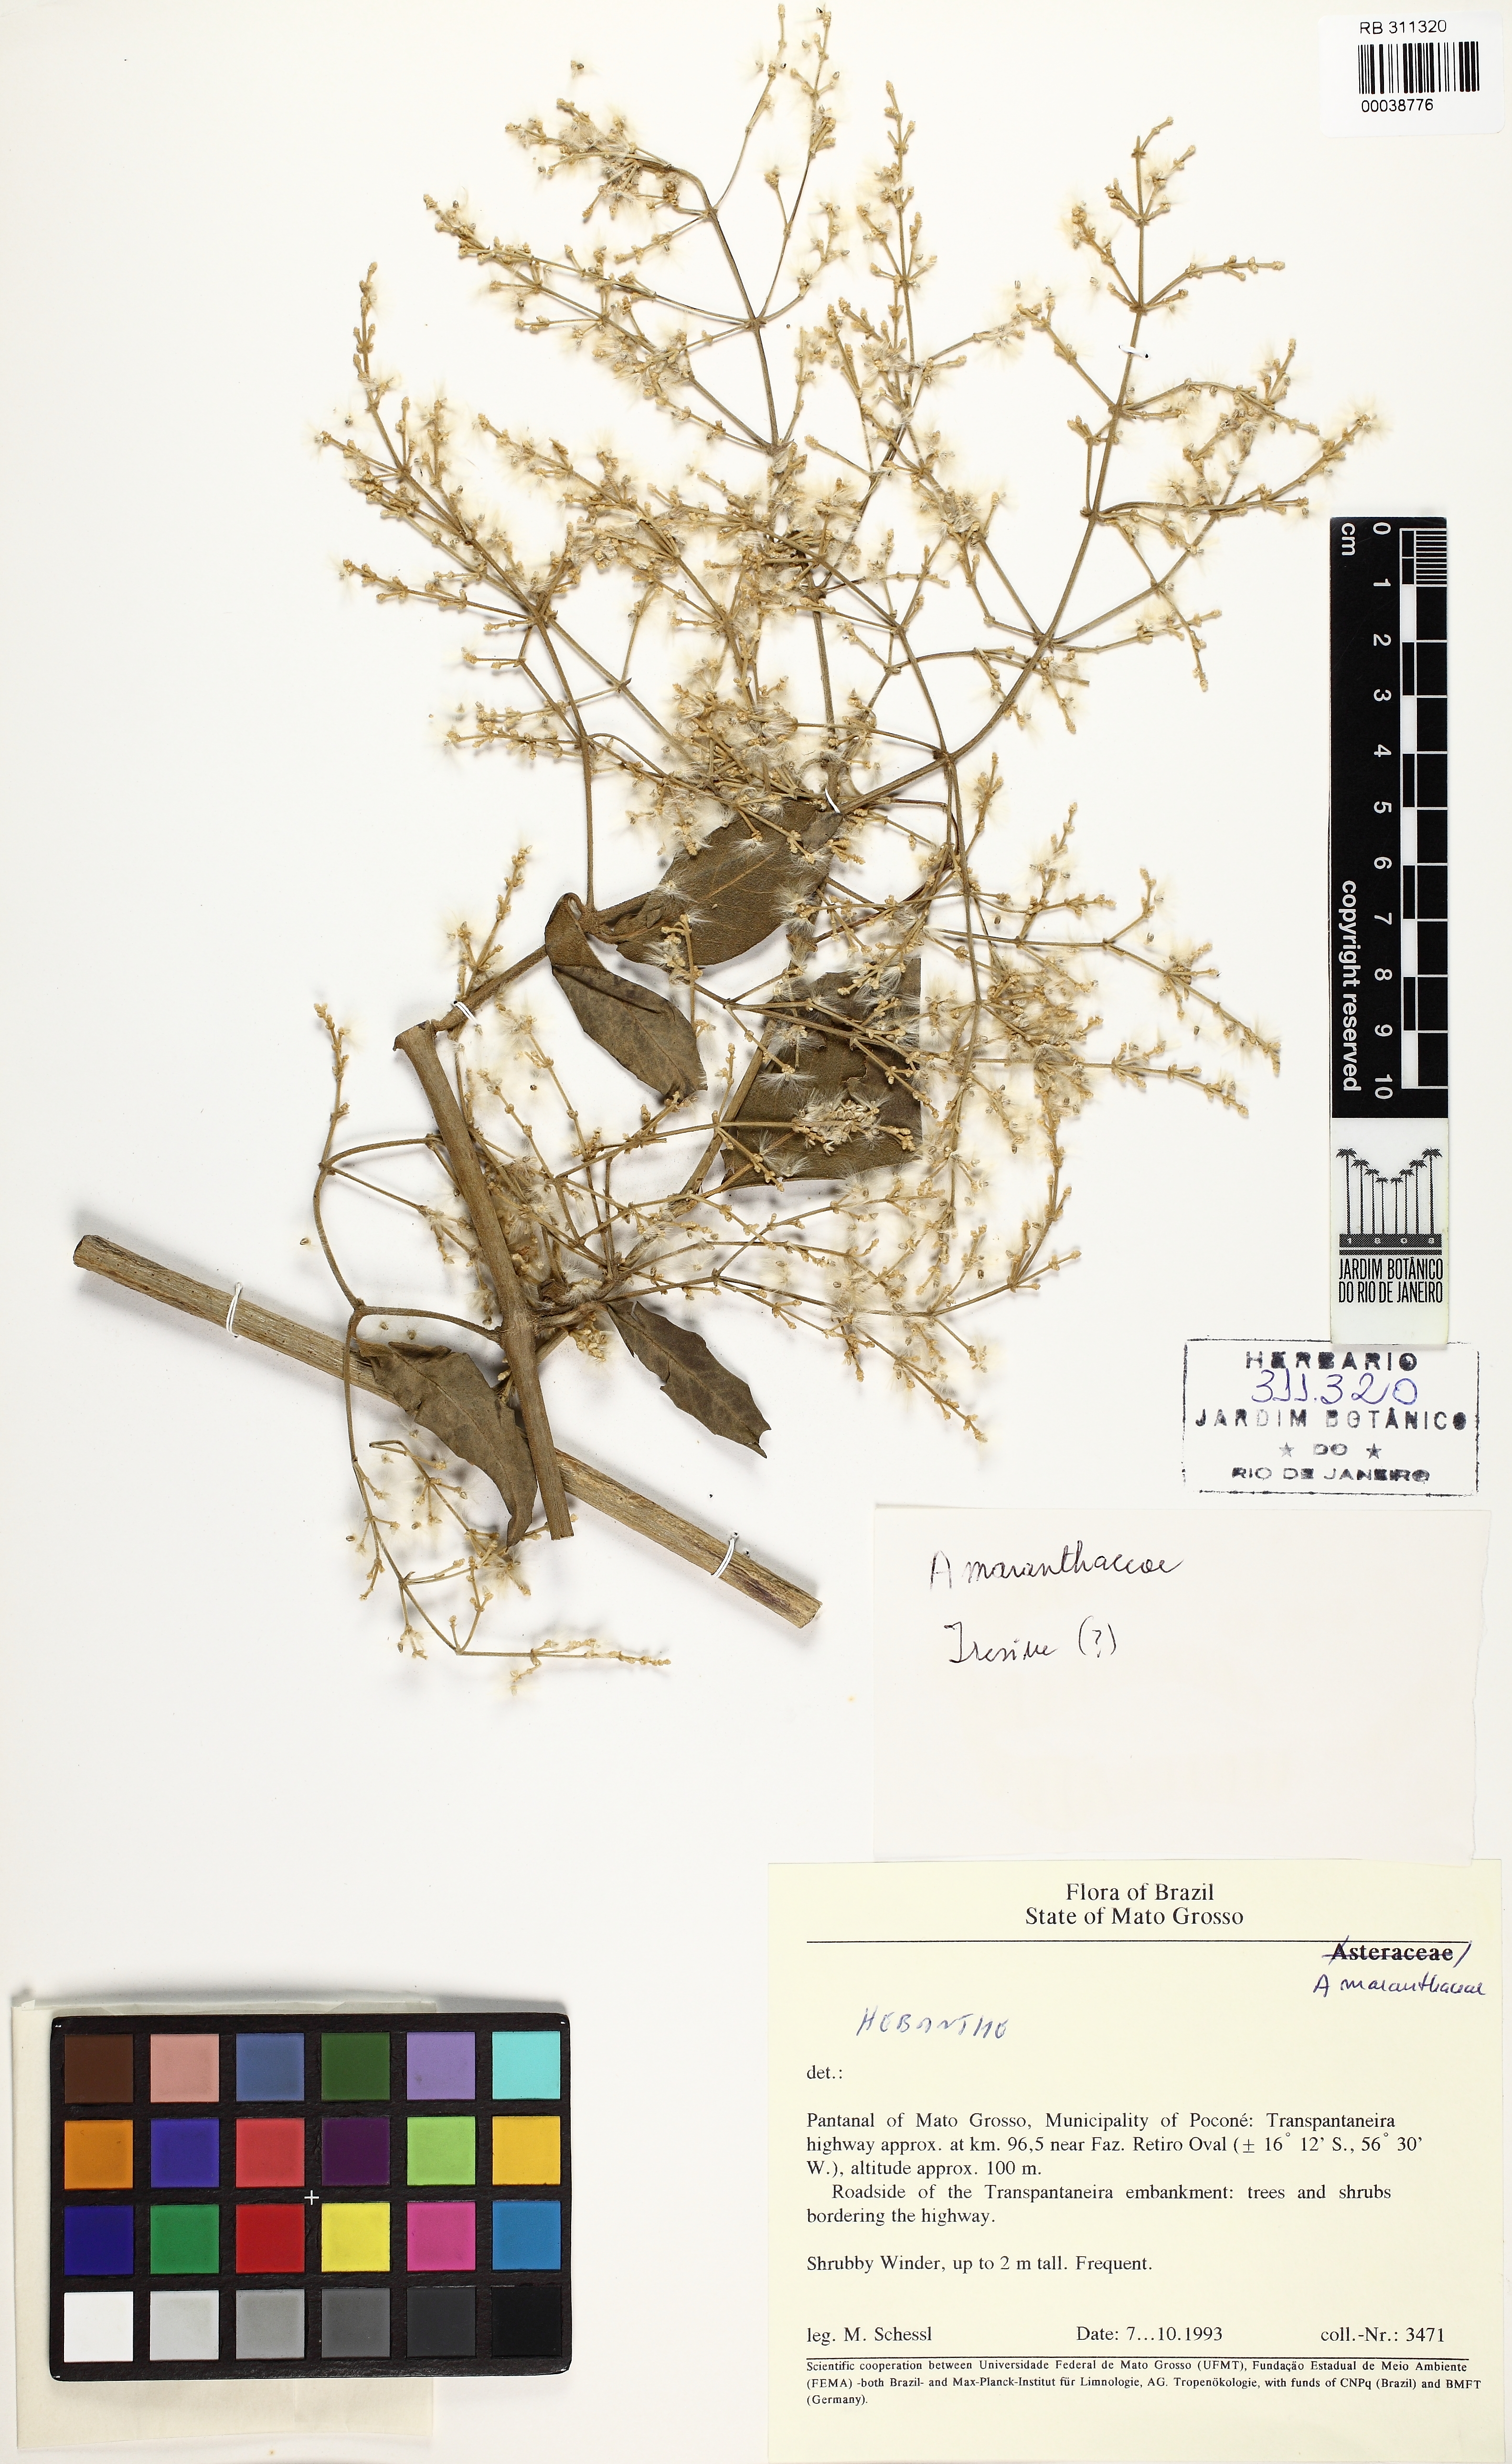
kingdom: Plantae
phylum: Tracheophyta
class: Magnoliopsida
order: Caryophyllales
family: Amaranthaceae
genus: Hebanthe
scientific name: Hebanthe erianthos
